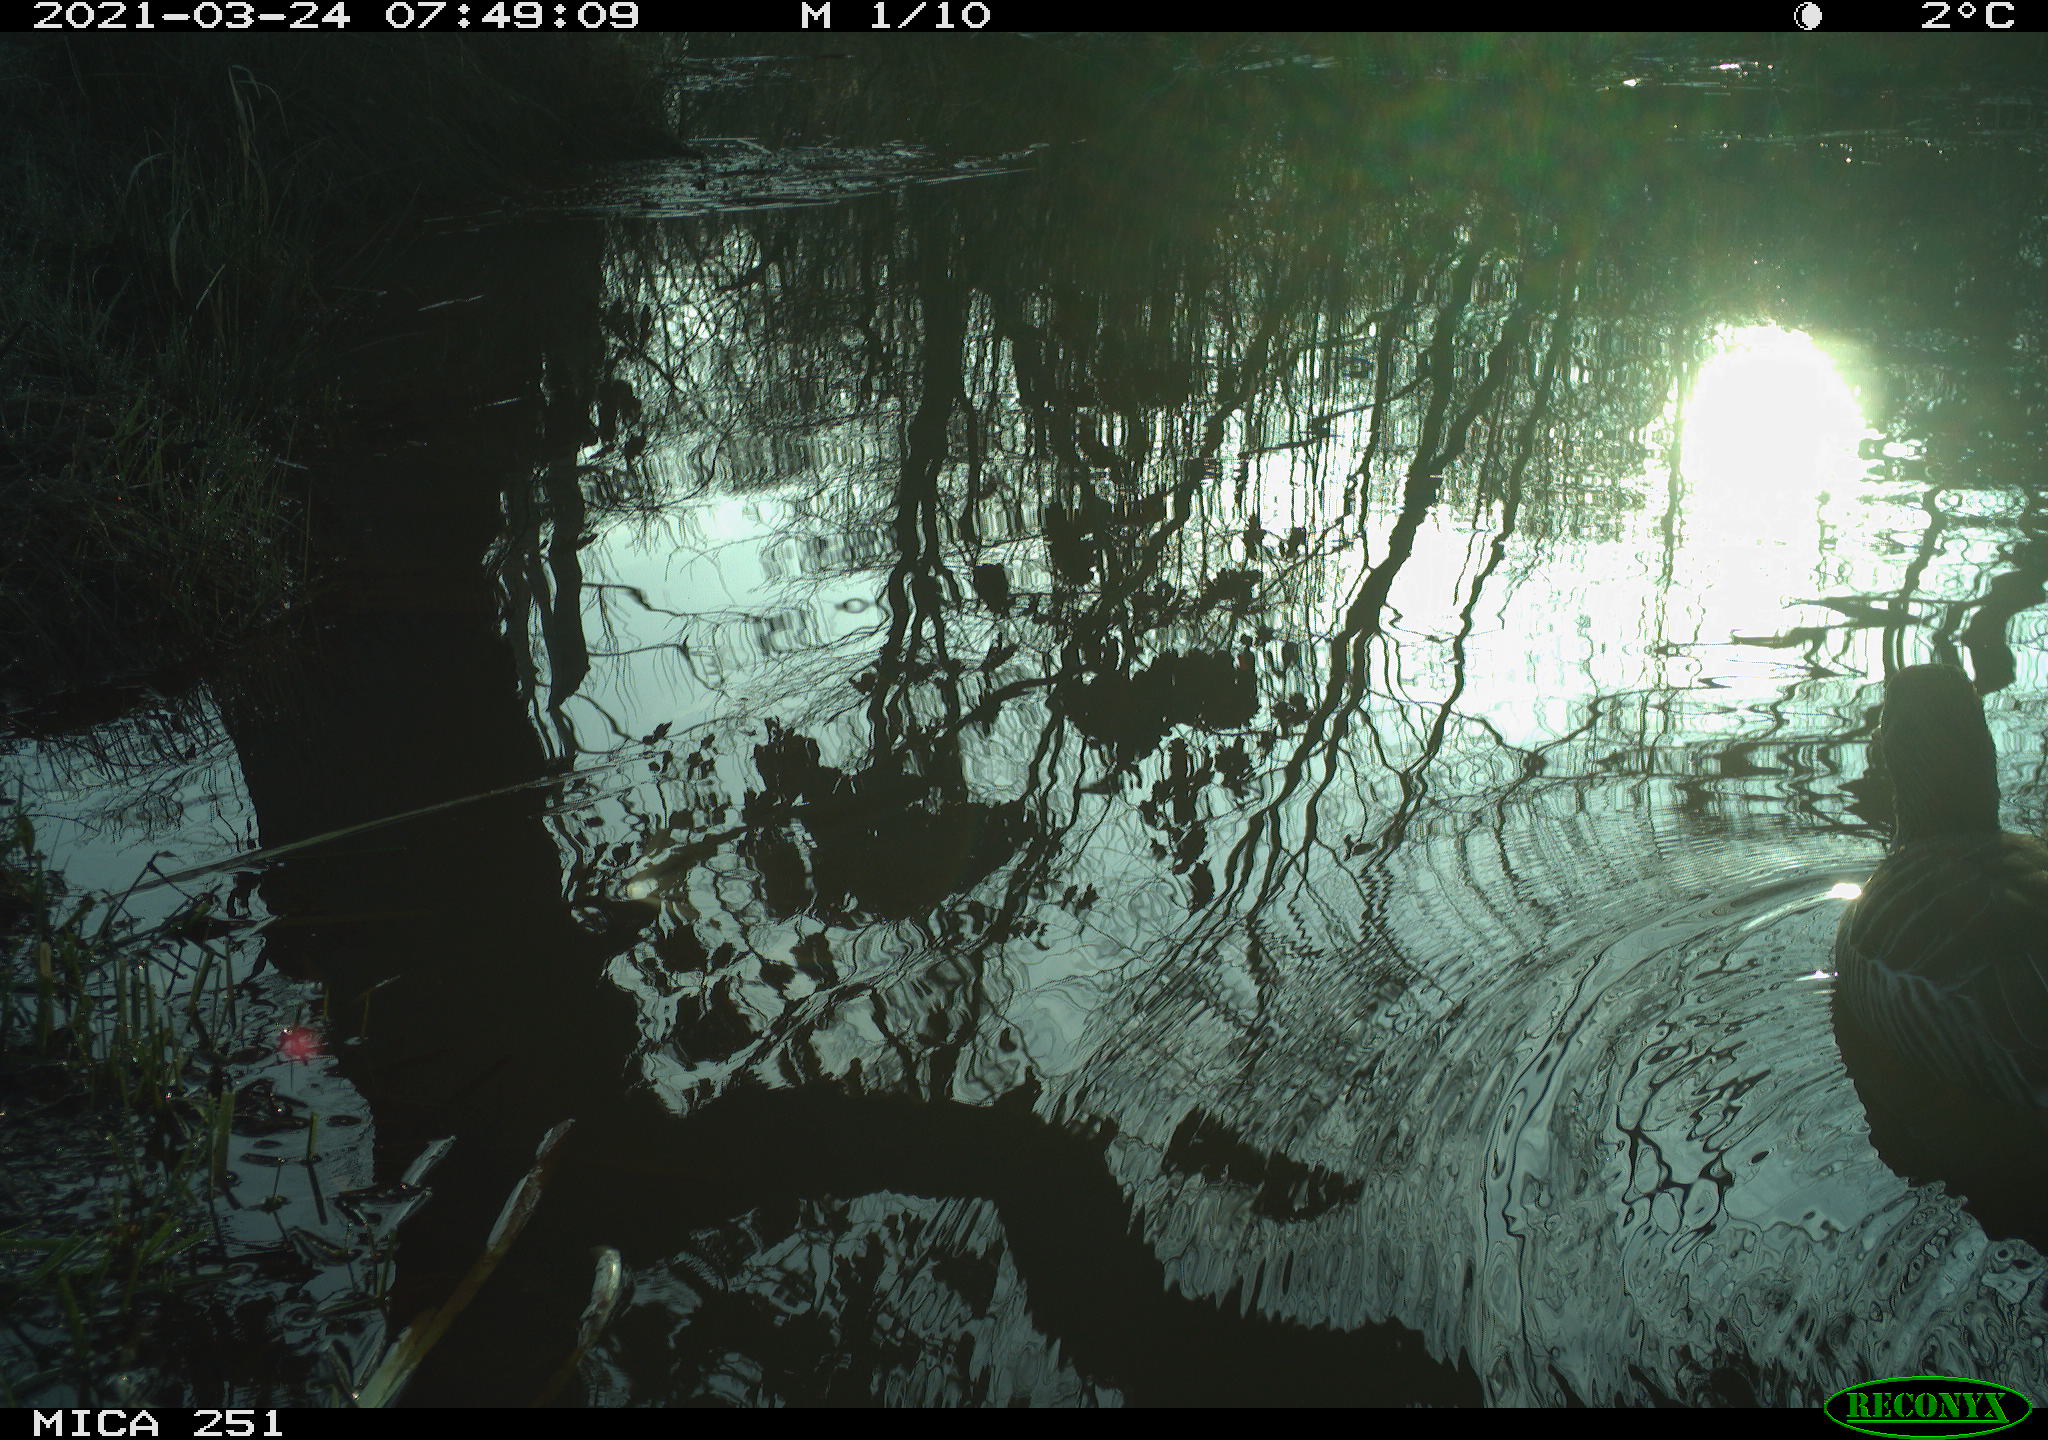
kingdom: Animalia
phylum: Chordata
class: Aves
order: Anseriformes
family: Anatidae
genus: Anser
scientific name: Anser anser
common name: Greylag goose
